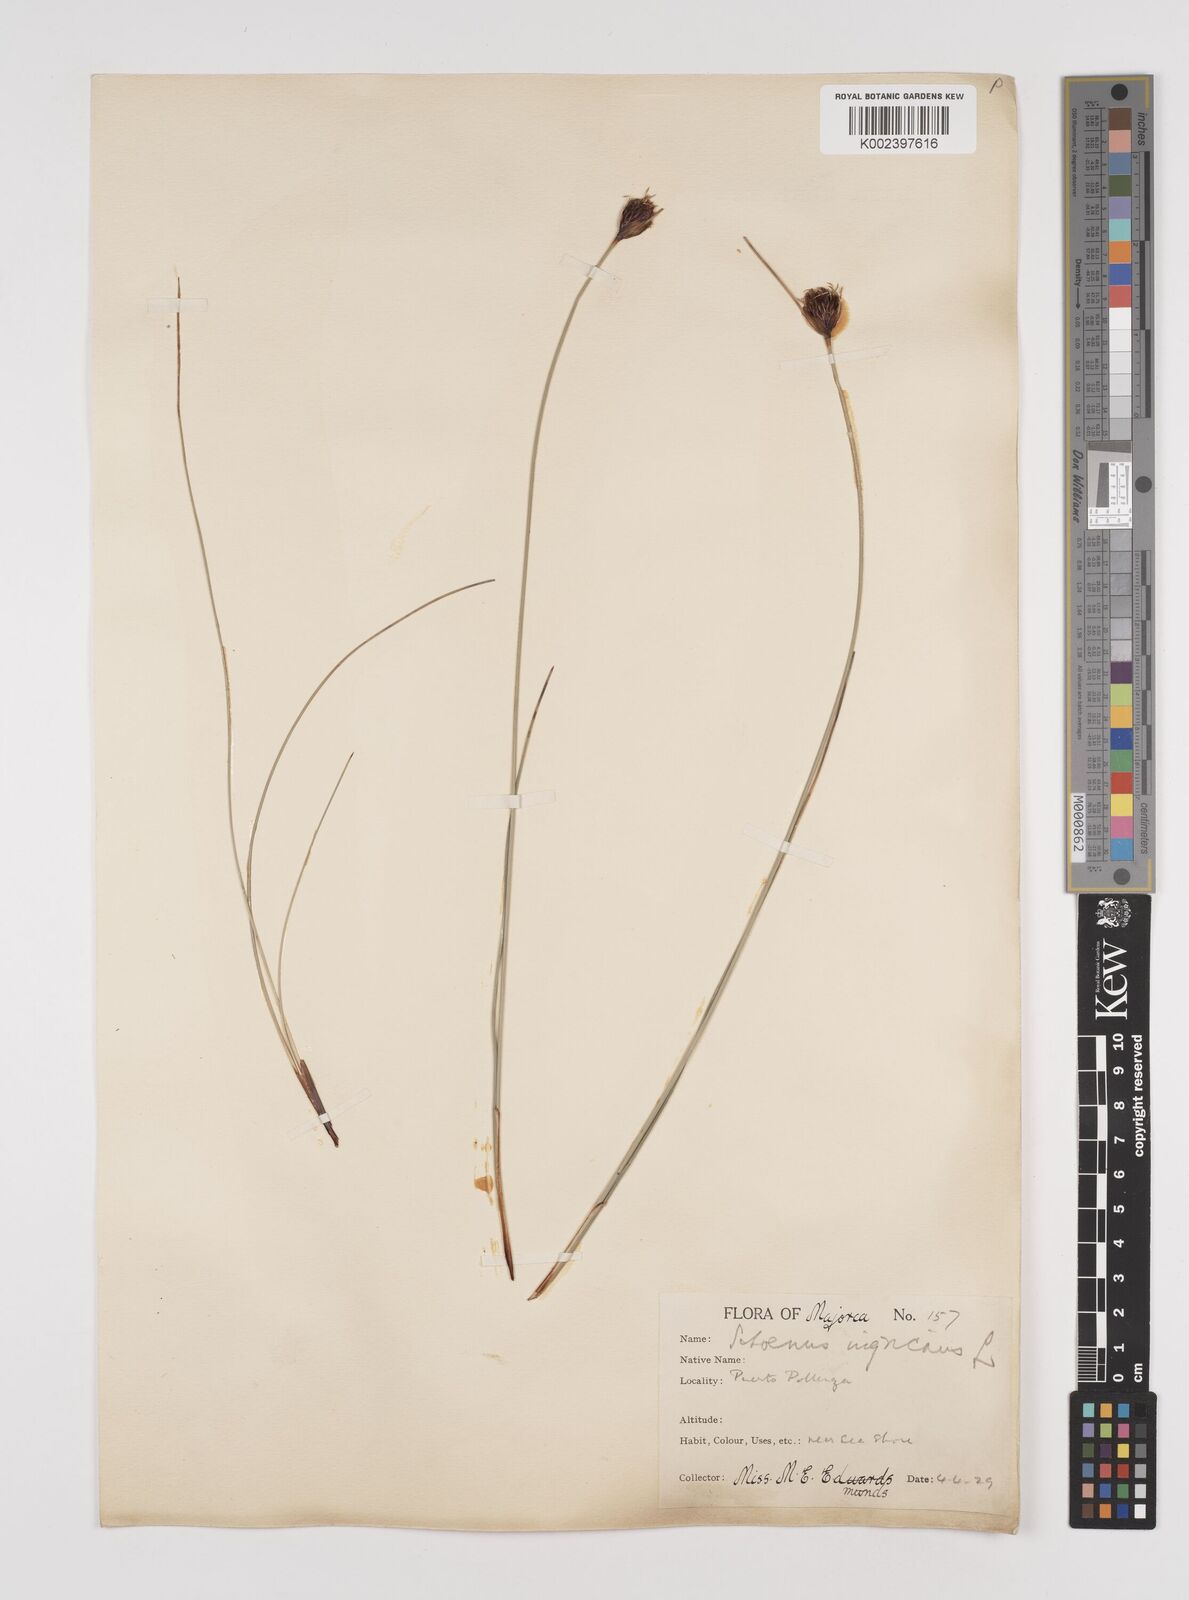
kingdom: Plantae
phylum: Tracheophyta
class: Liliopsida
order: Poales
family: Cyperaceae
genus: Schoenus
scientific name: Schoenus nigricans
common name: Black bog-rush
